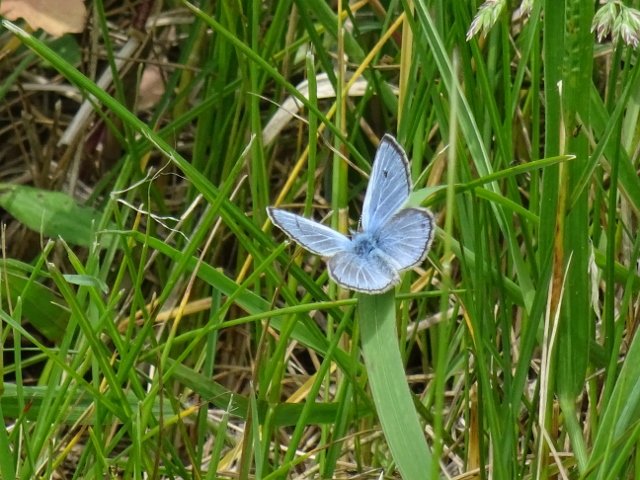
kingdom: Animalia
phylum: Arthropoda
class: Insecta
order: Lepidoptera
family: Lycaenidae
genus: Glaucopsyche
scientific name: Glaucopsyche lygdamus
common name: Silvery Blue
